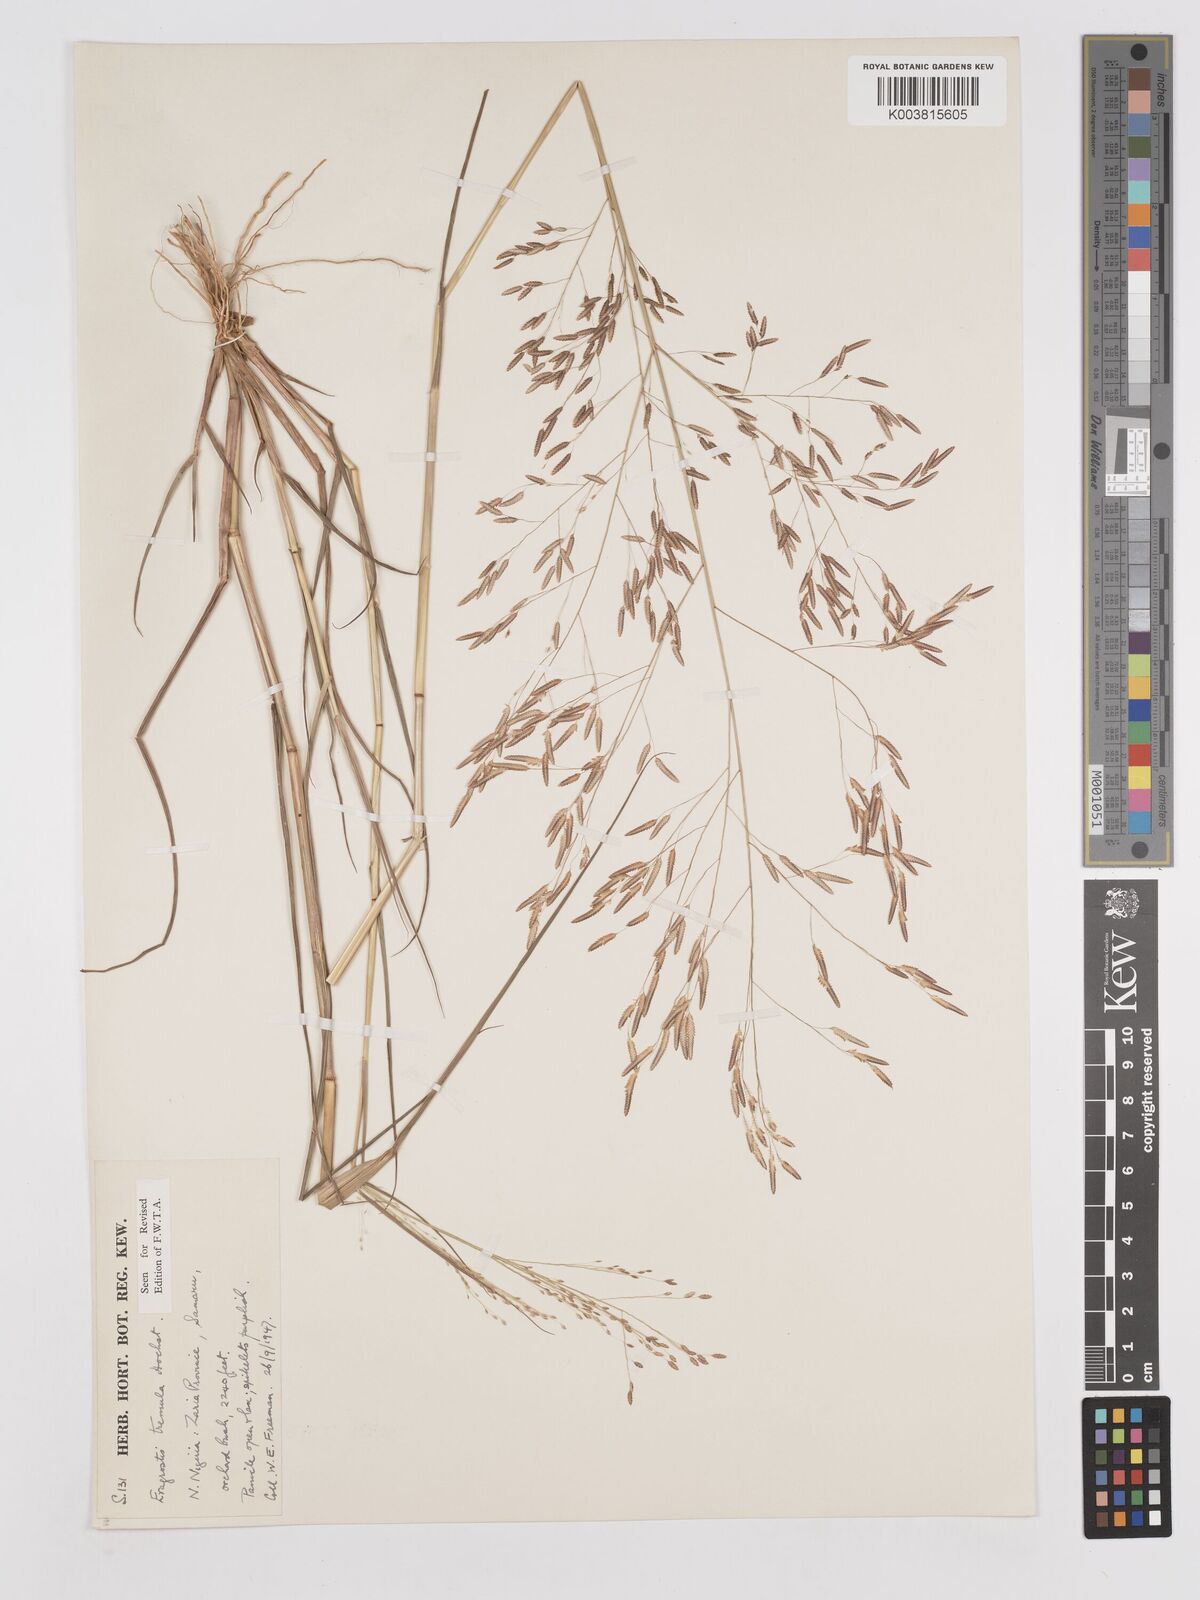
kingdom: Plantae
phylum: Tracheophyta
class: Liliopsida
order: Poales
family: Poaceae
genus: Eragrostis
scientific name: Eragrostis tremula
